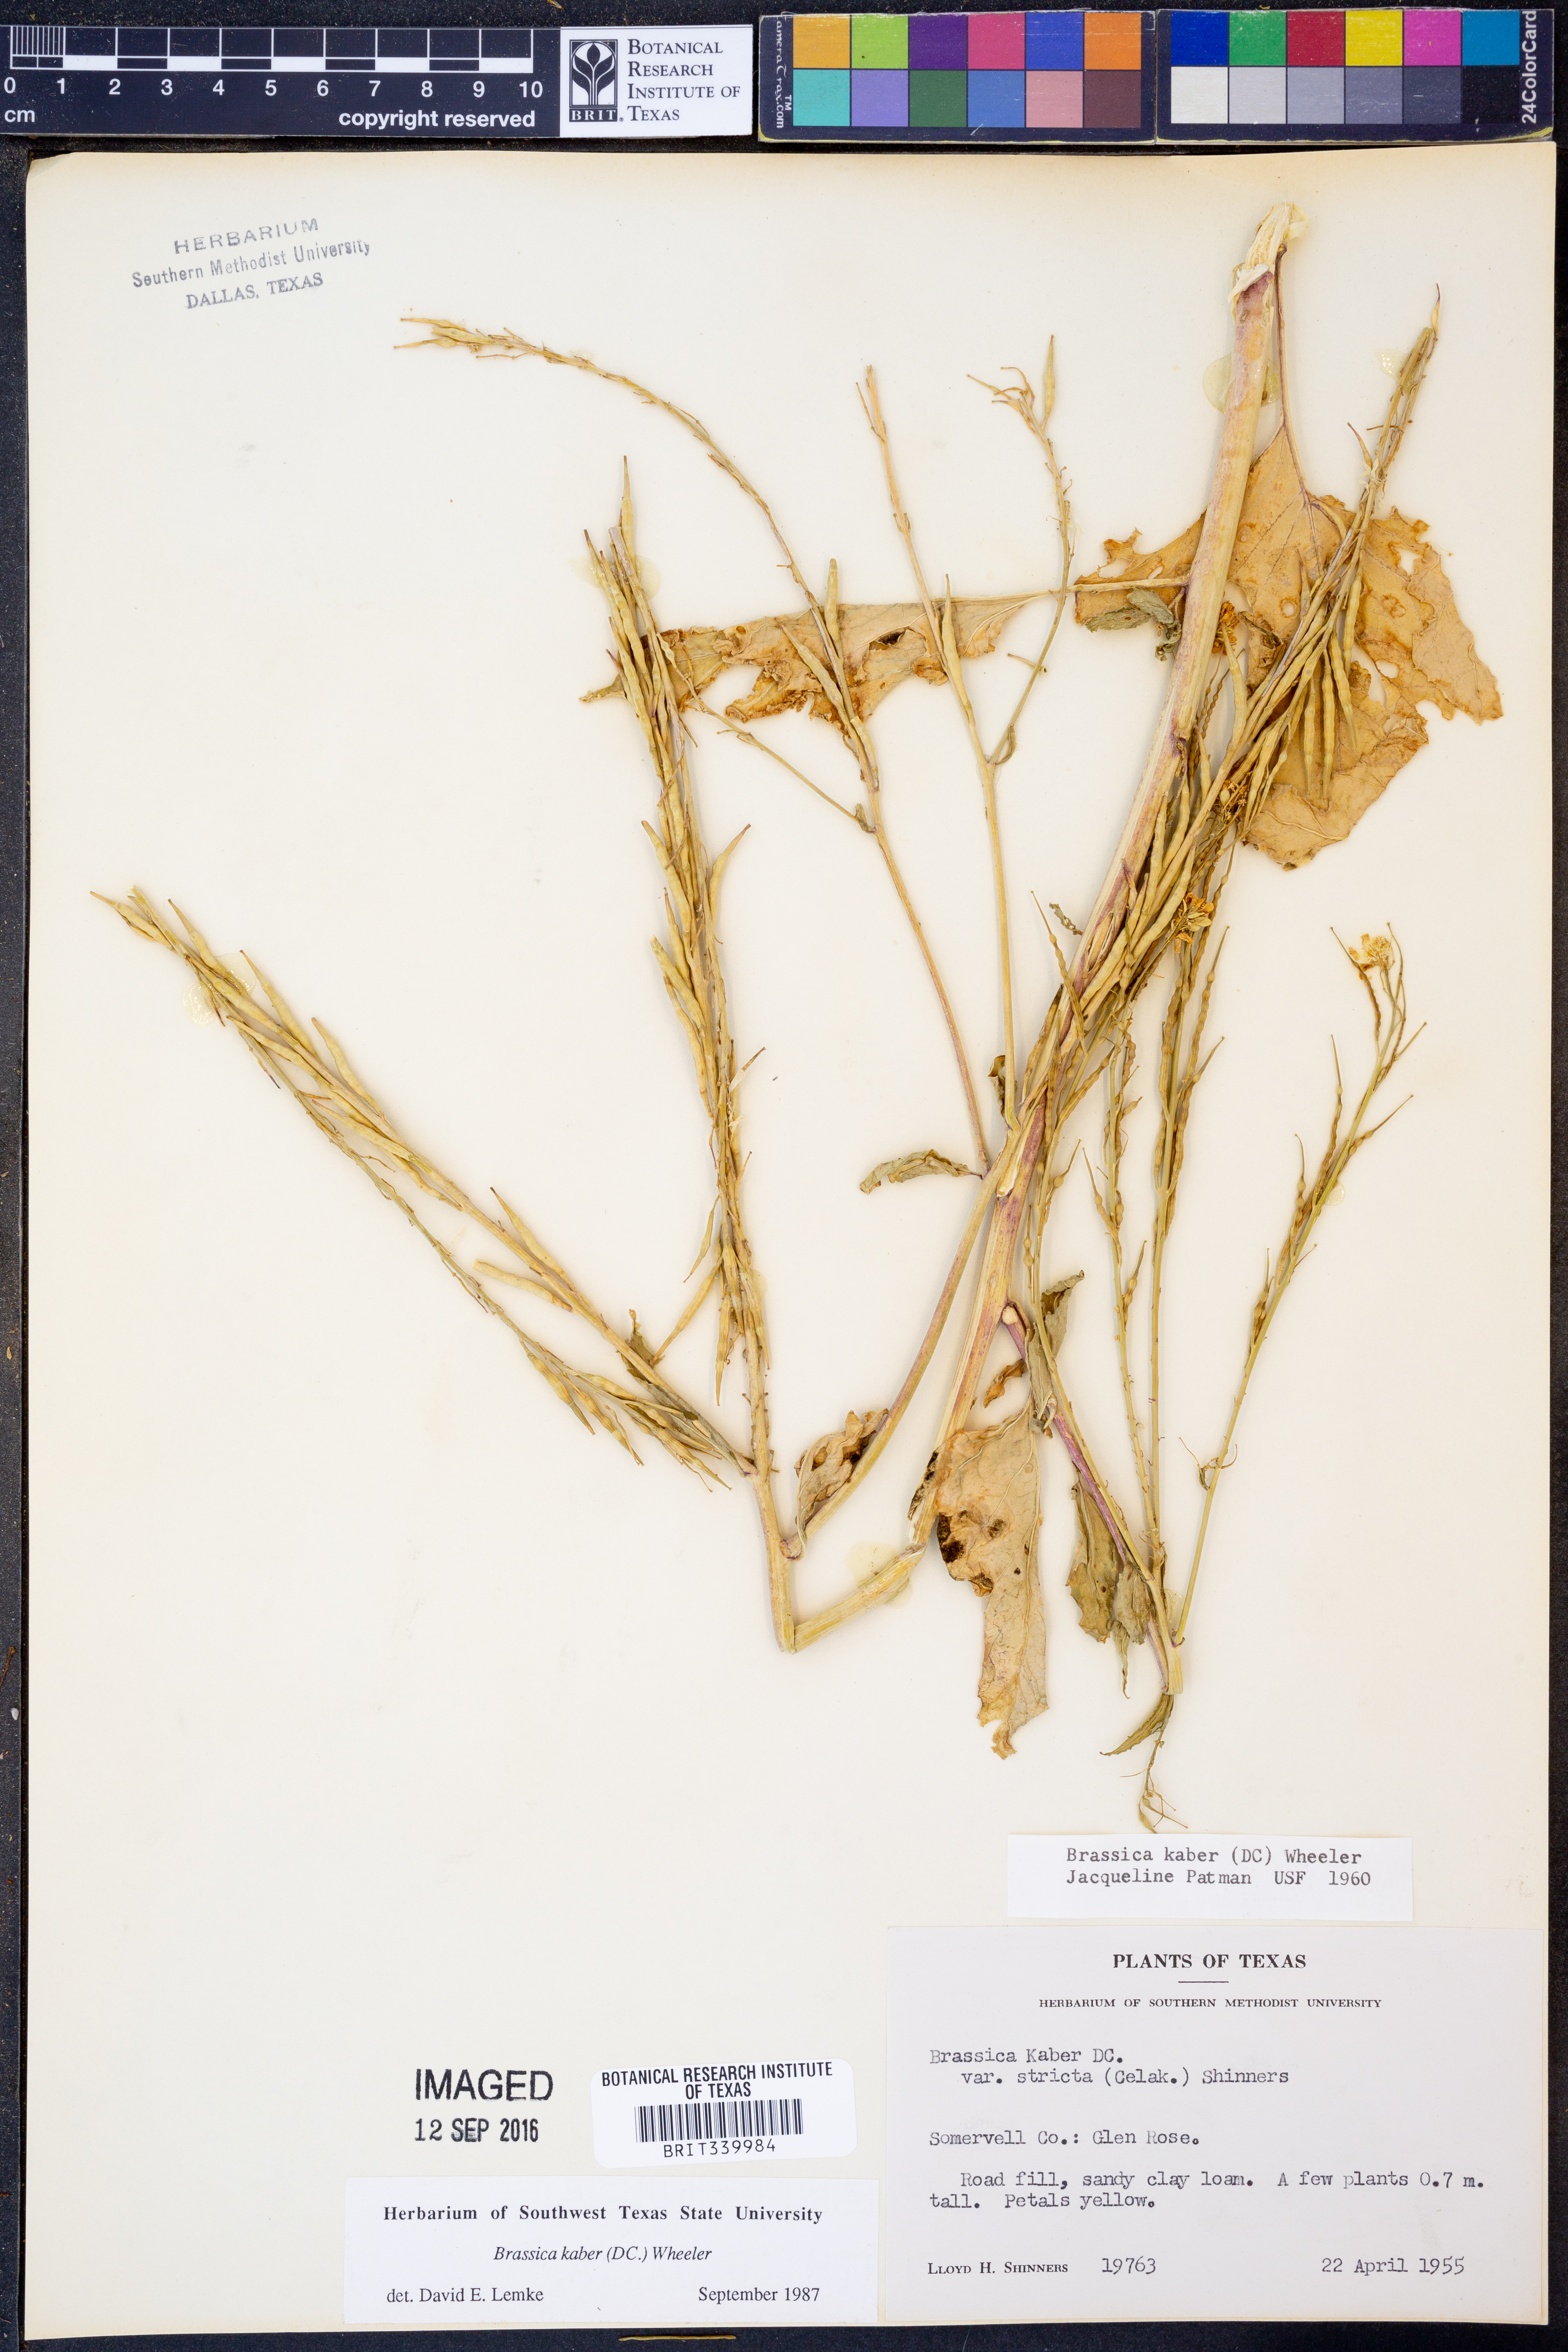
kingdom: Plantae
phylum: Tracheophyta
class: Magnoliopsida
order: Brassicales
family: Brassicaceae
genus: Sinapis
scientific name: Sinapis arvensis
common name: Charlock
